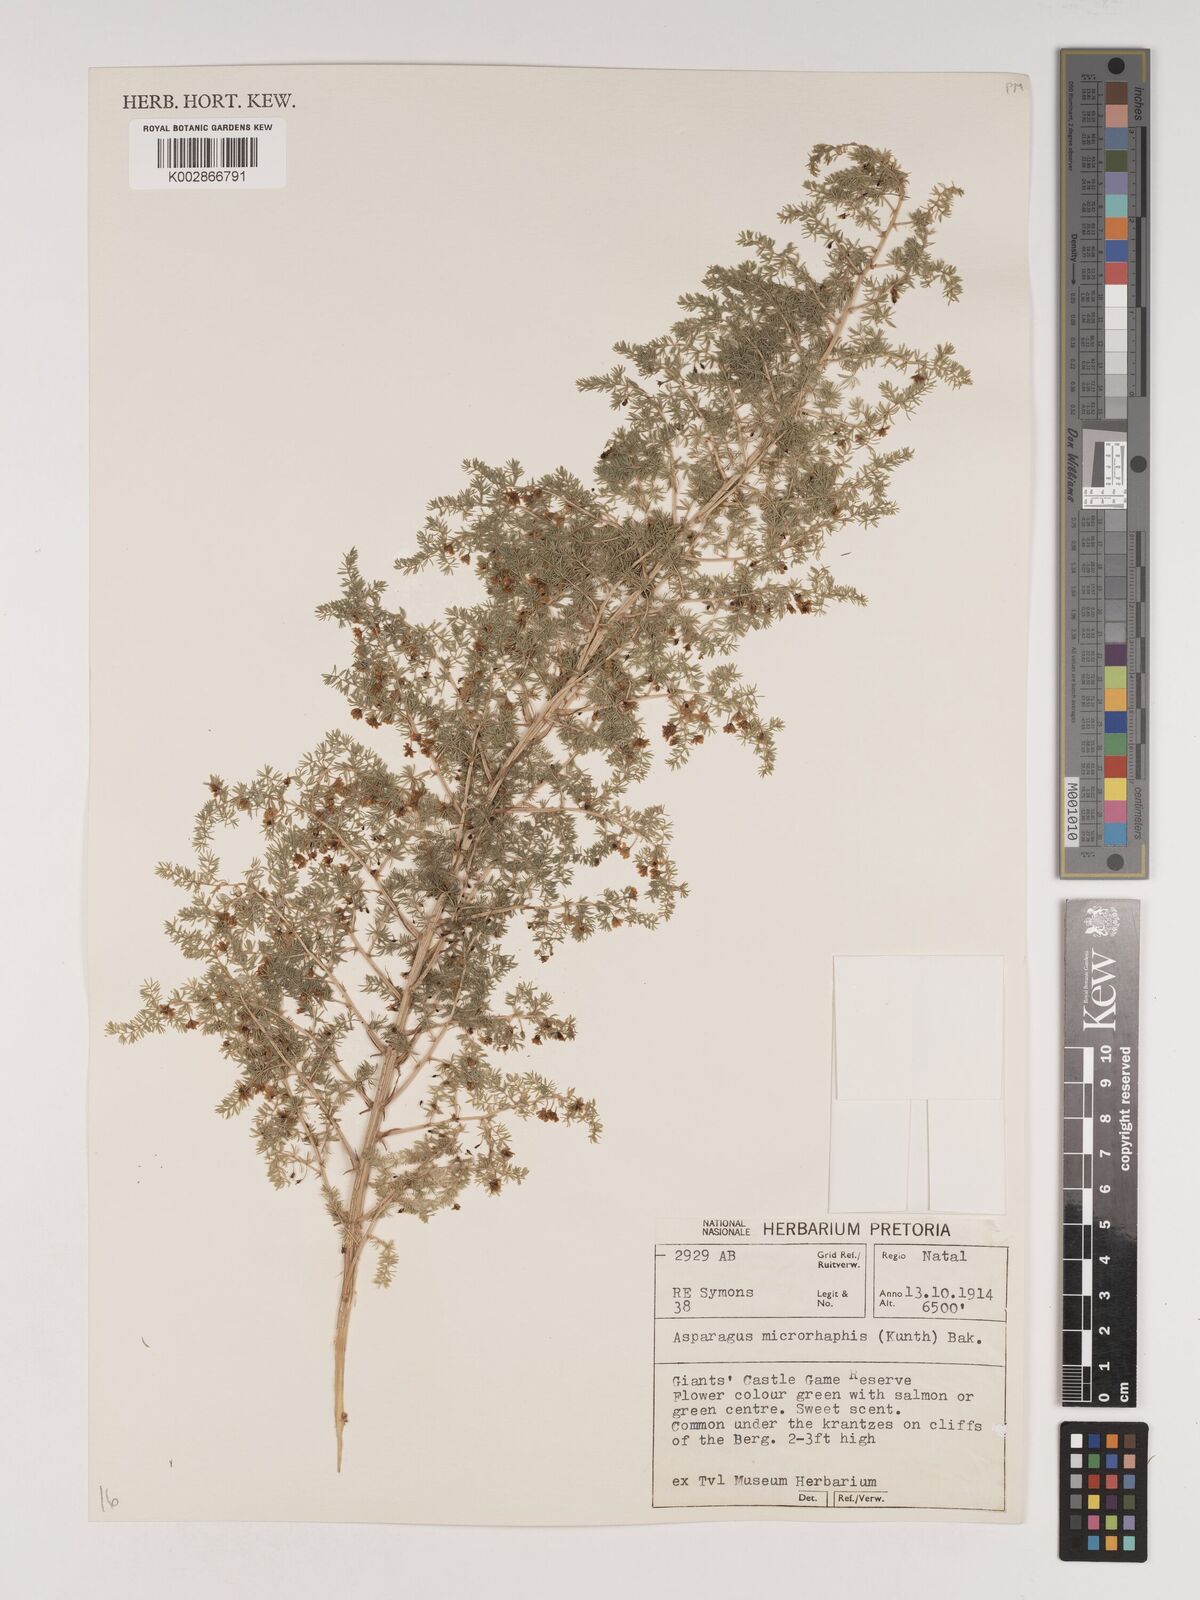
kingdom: Plantae
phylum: Tracheophyta
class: Liliopsida
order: Asparagales
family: Asparagaceae
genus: Asparagus
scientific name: Asparagus microraphis
